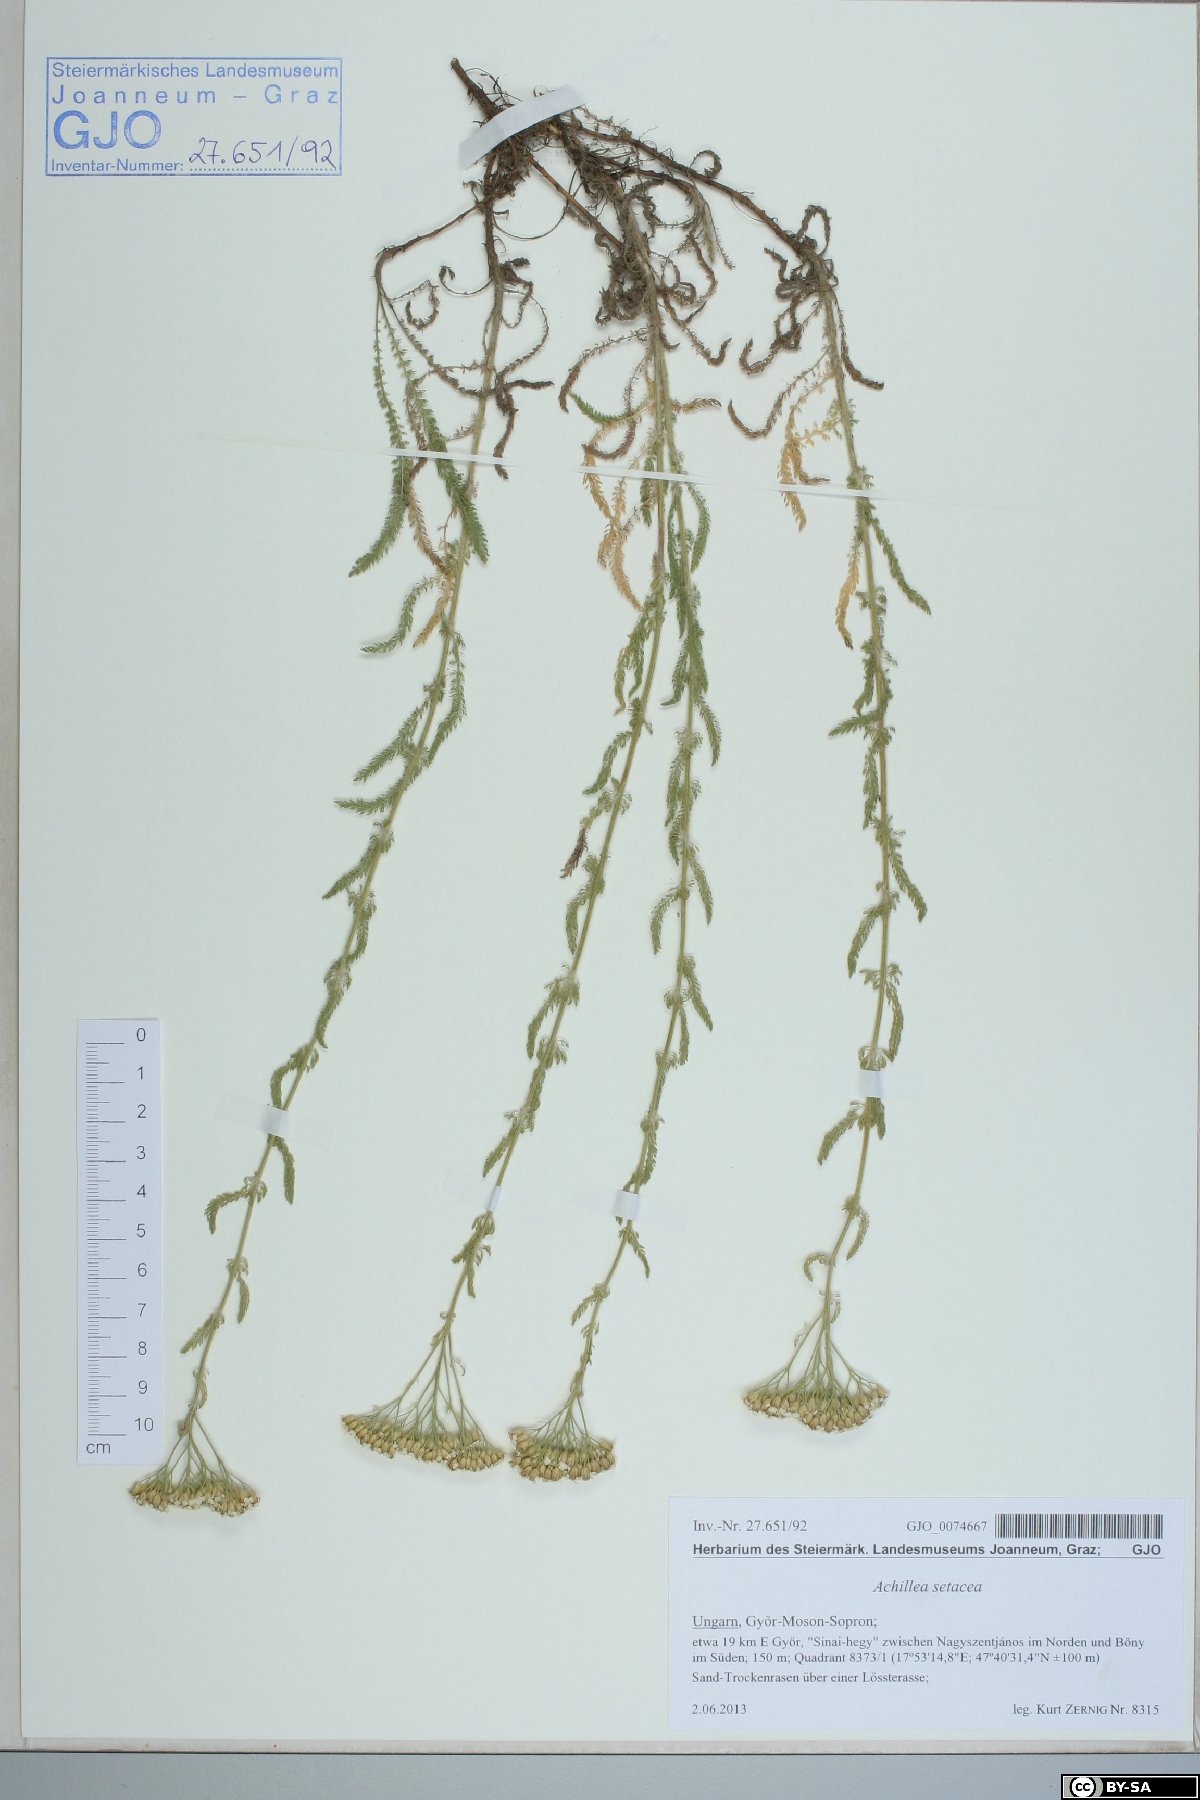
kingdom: Plantae
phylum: Tracheophyta
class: Magnoliopsida
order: Asterales
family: Asteraceae
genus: Achillea
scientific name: Achillea setacea
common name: Bristly yarrow
